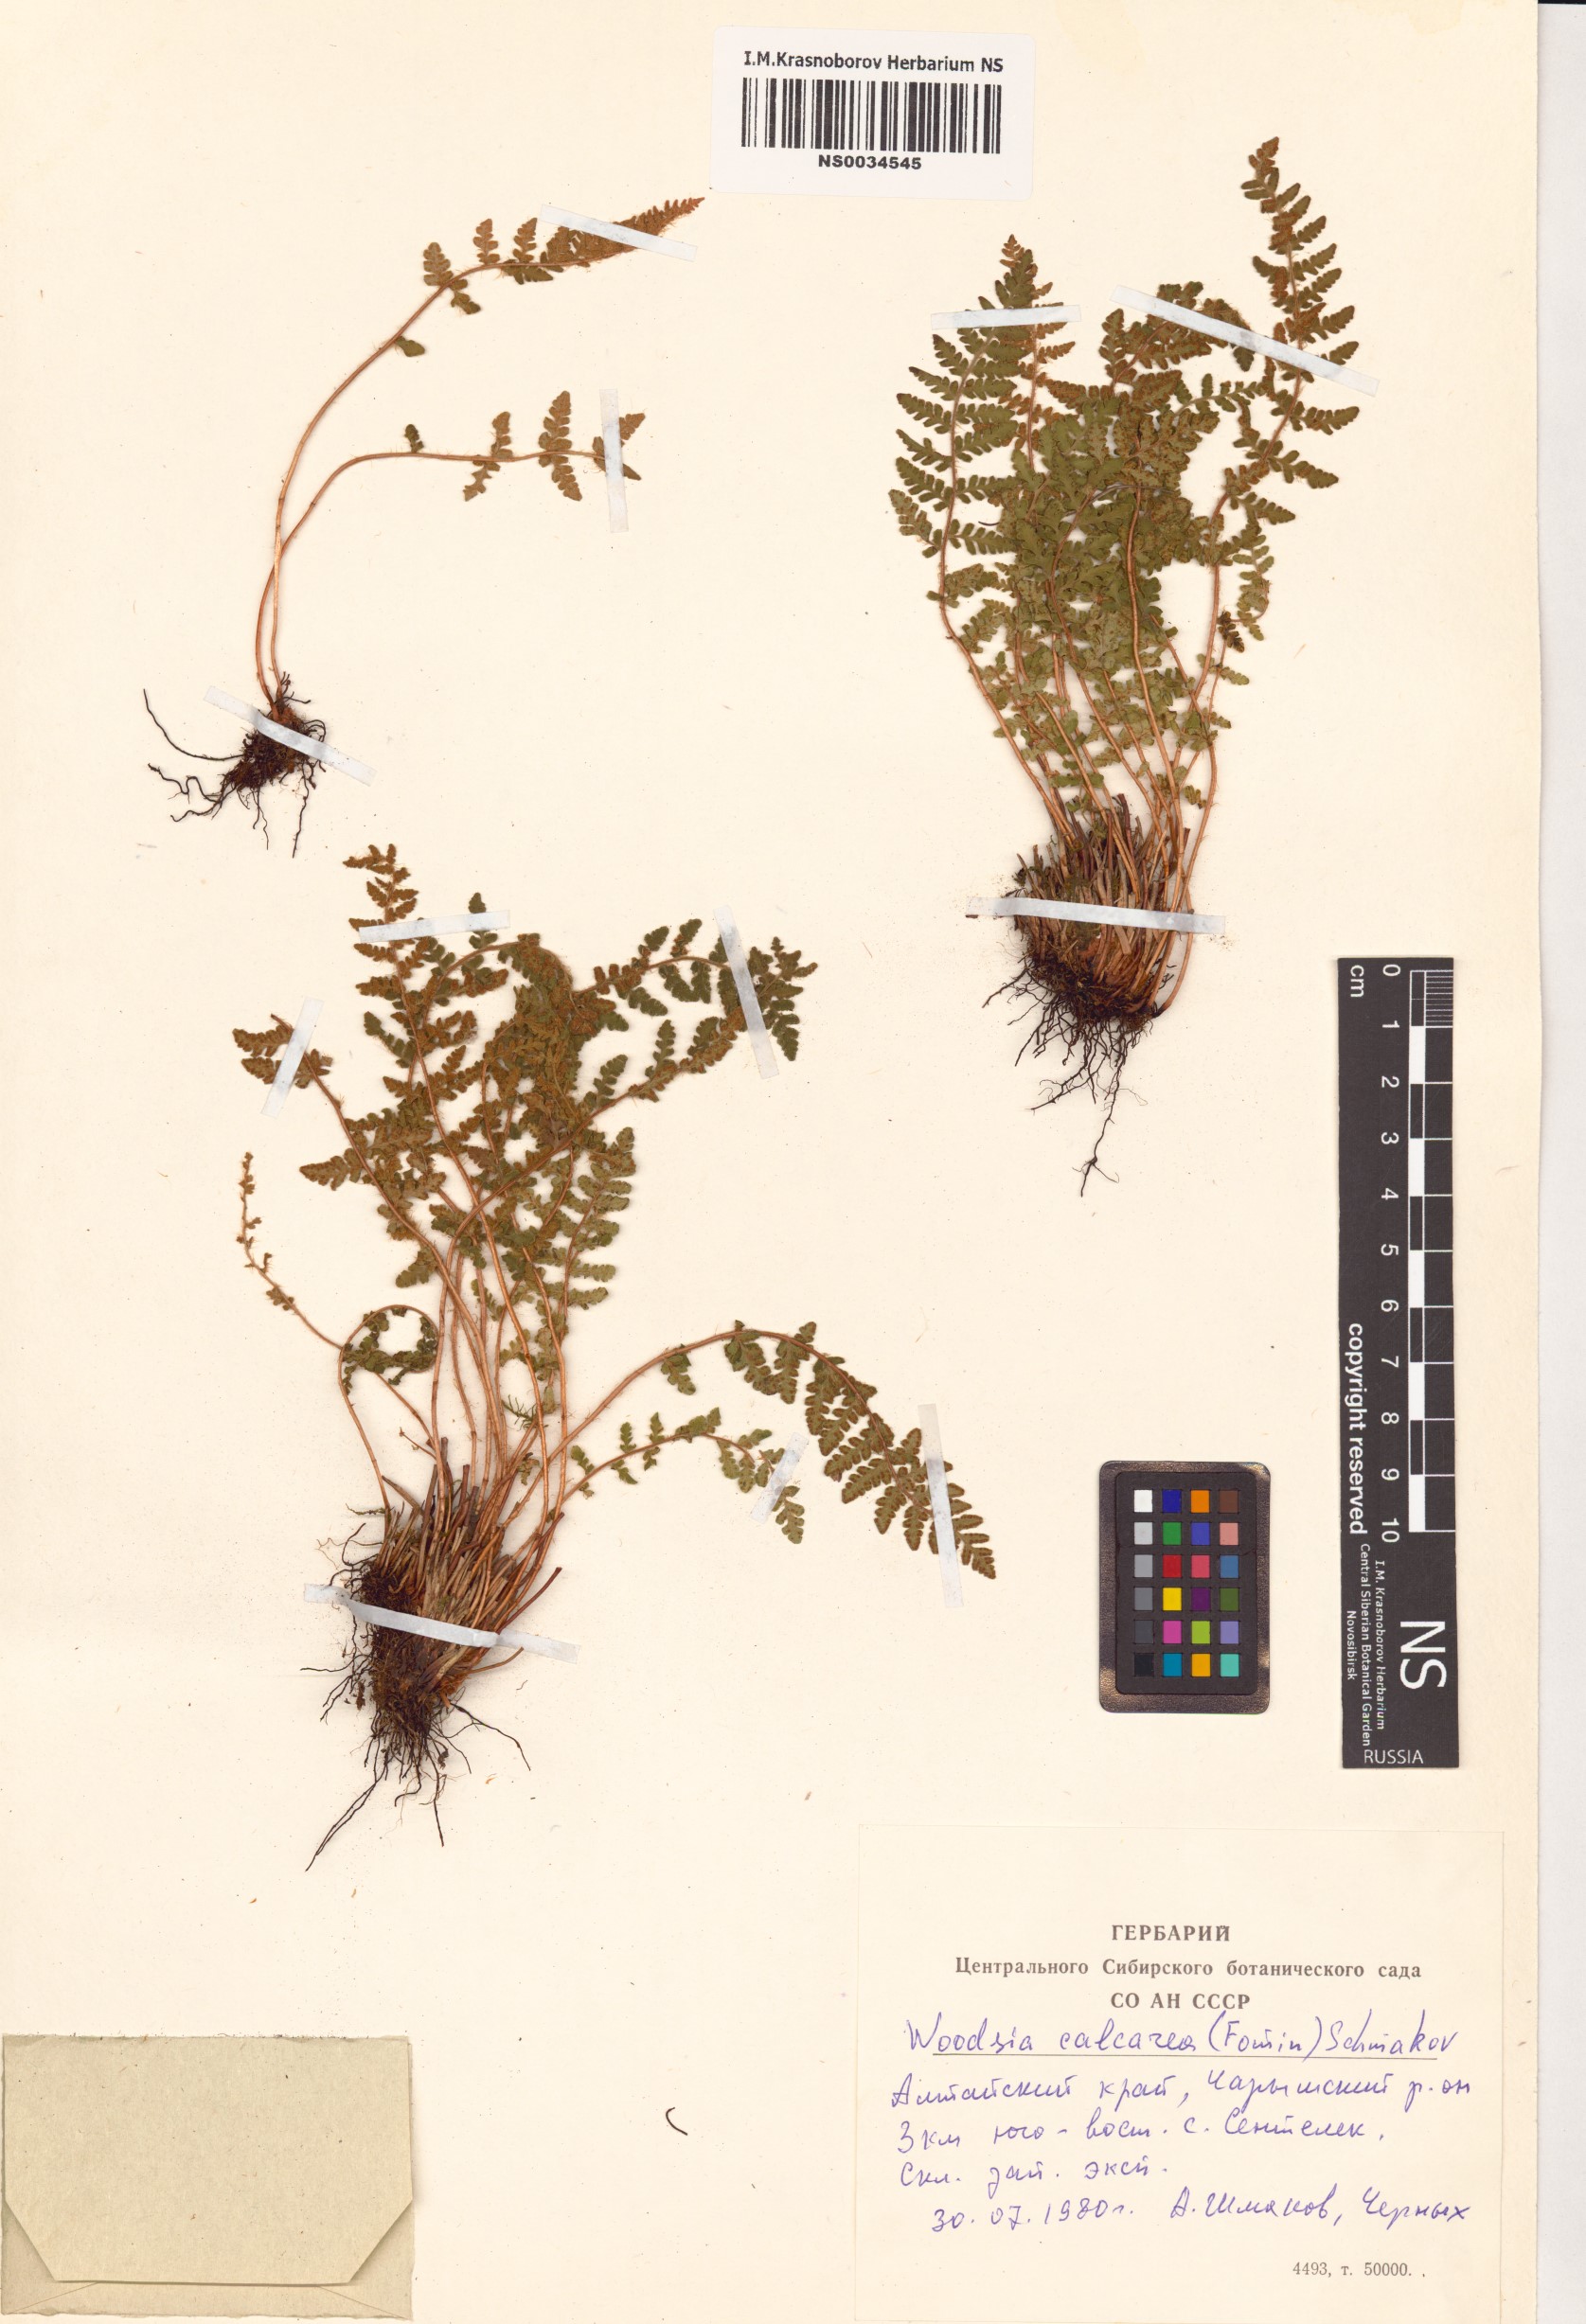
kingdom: Plantae
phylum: Tracheophyta
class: Polypodiopsida
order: Polypodiales
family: Woodsiaceae
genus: Woodsia
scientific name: Woodsia calcarea
